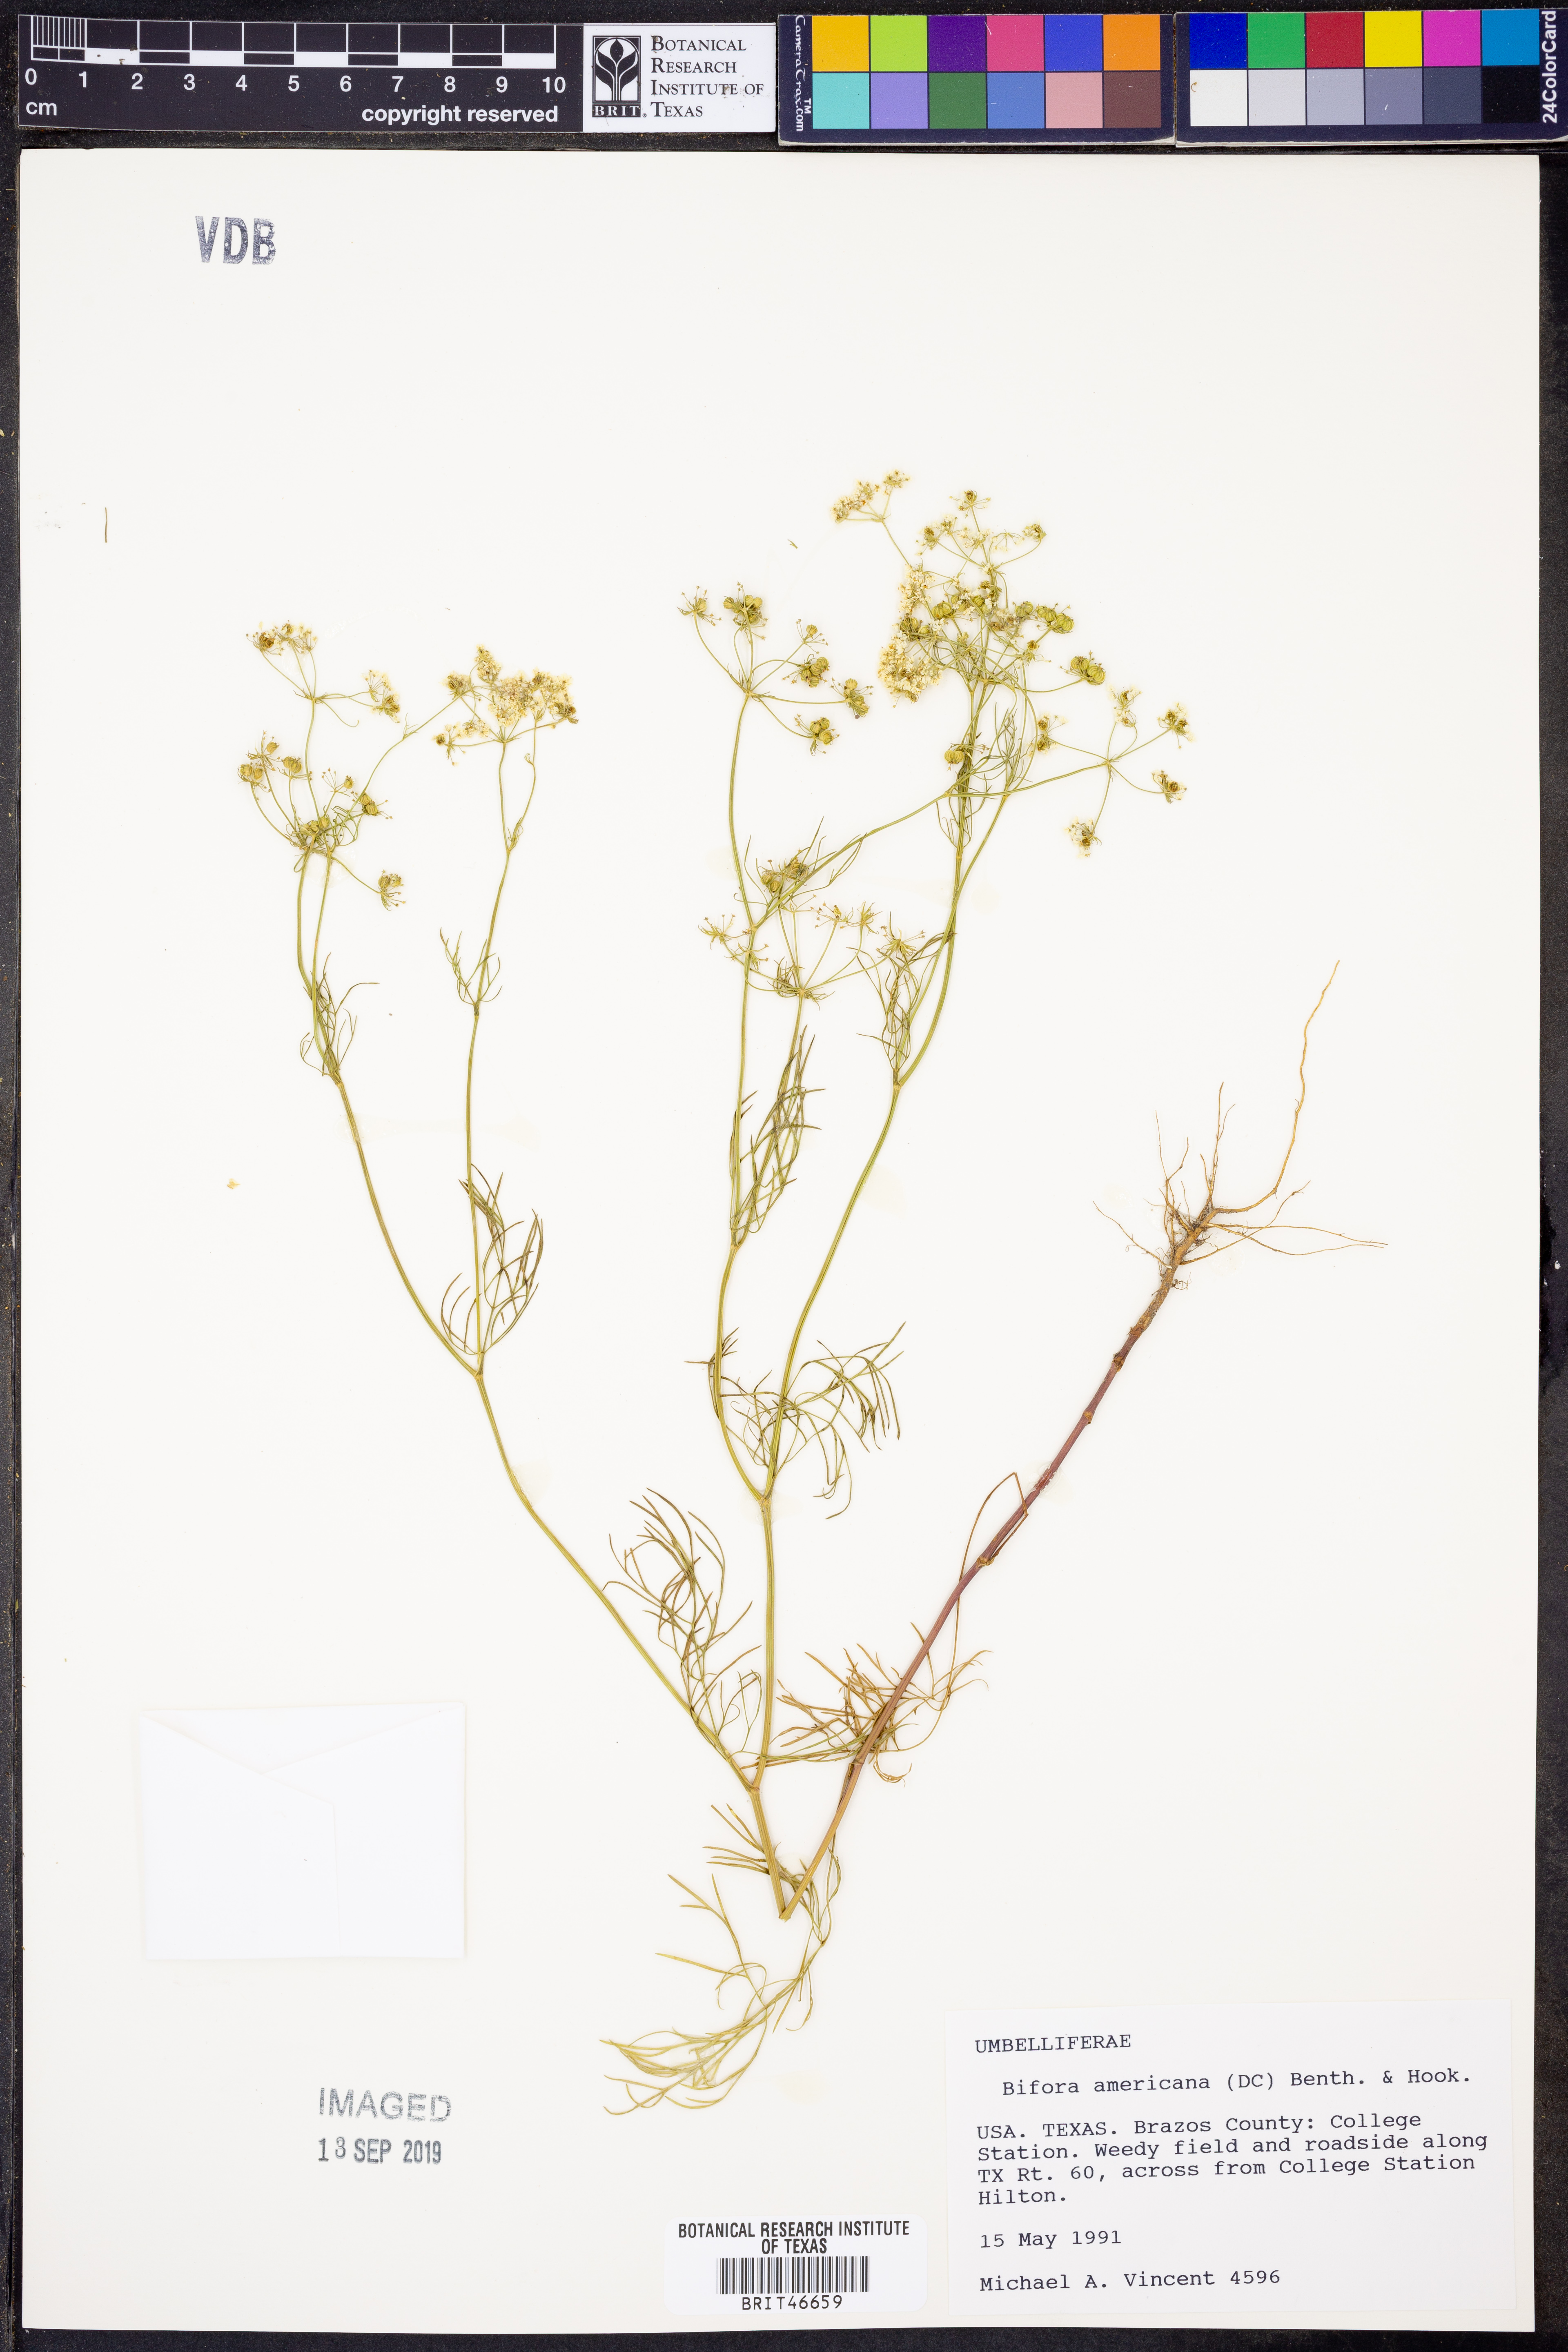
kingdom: Plantae
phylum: Tracheophyta
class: Magnoliopsida
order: Apiales
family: Apiaceae
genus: Atrema
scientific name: Atrema americanum
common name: Prairie-bishop
